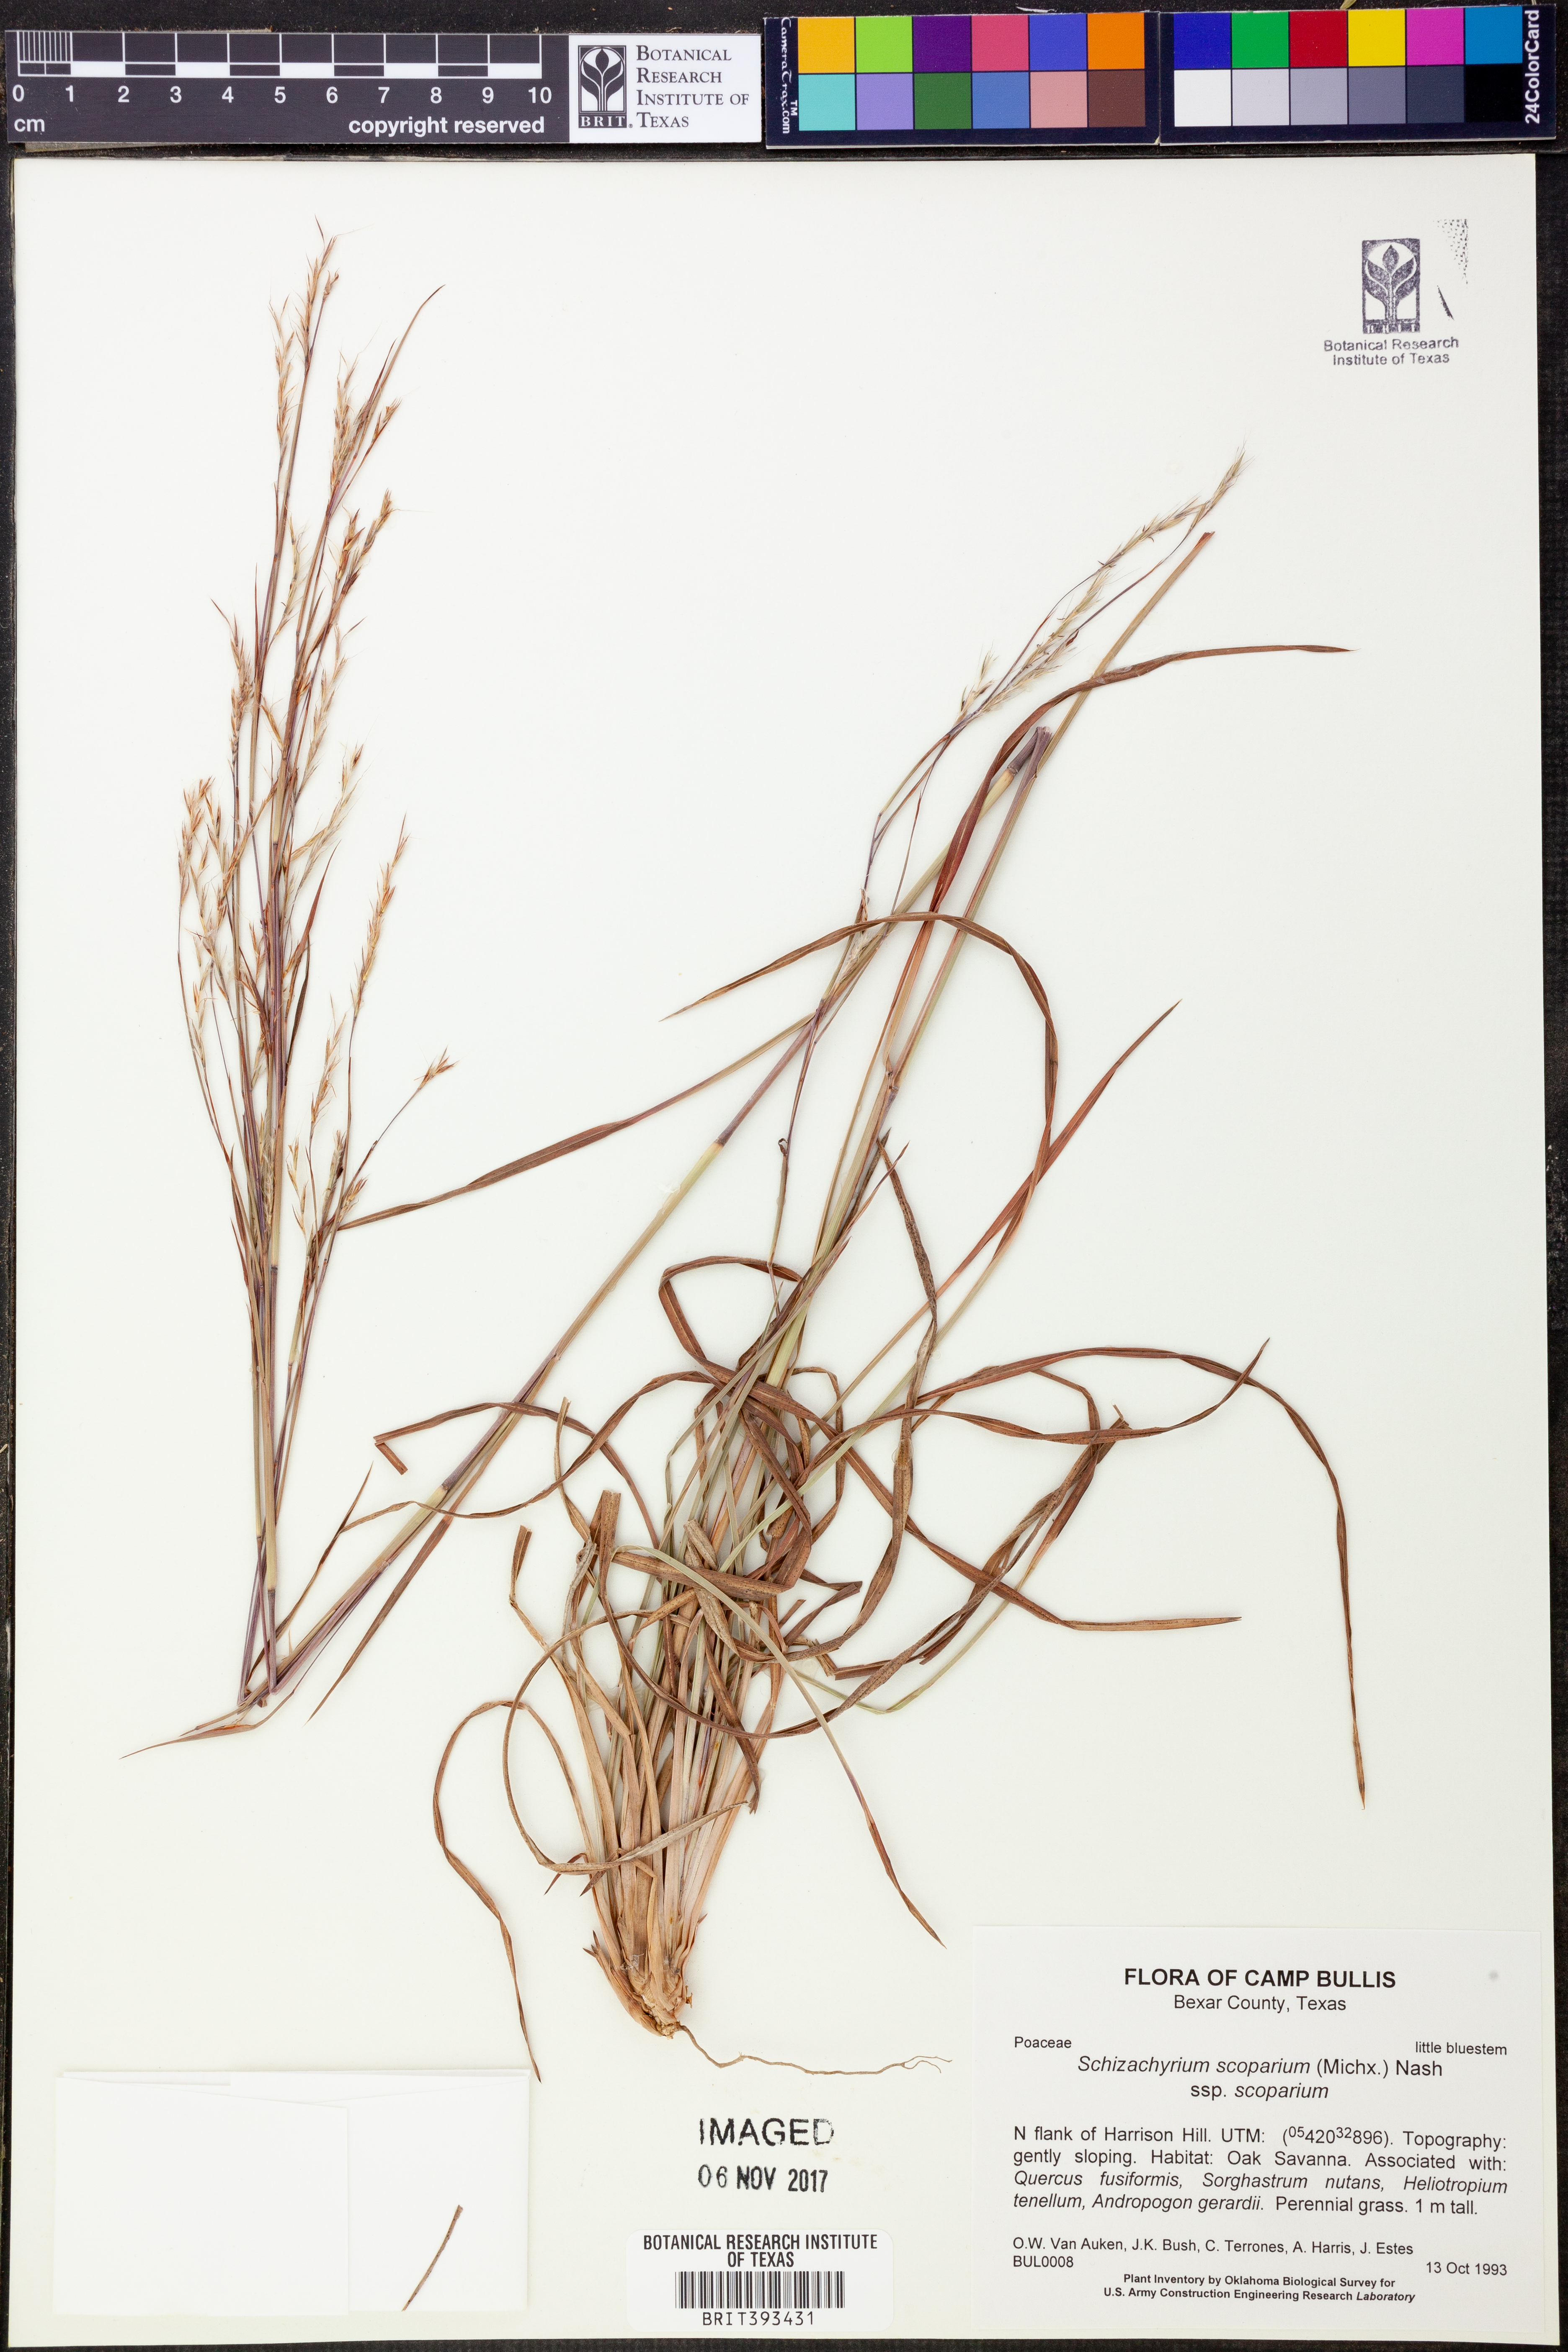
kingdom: Plantae
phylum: Tracheophyta
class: Liliopsida
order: Poales
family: Poaceae
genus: Schizachyrium
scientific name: Schizachyrium scoparium
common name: Little bluestem
